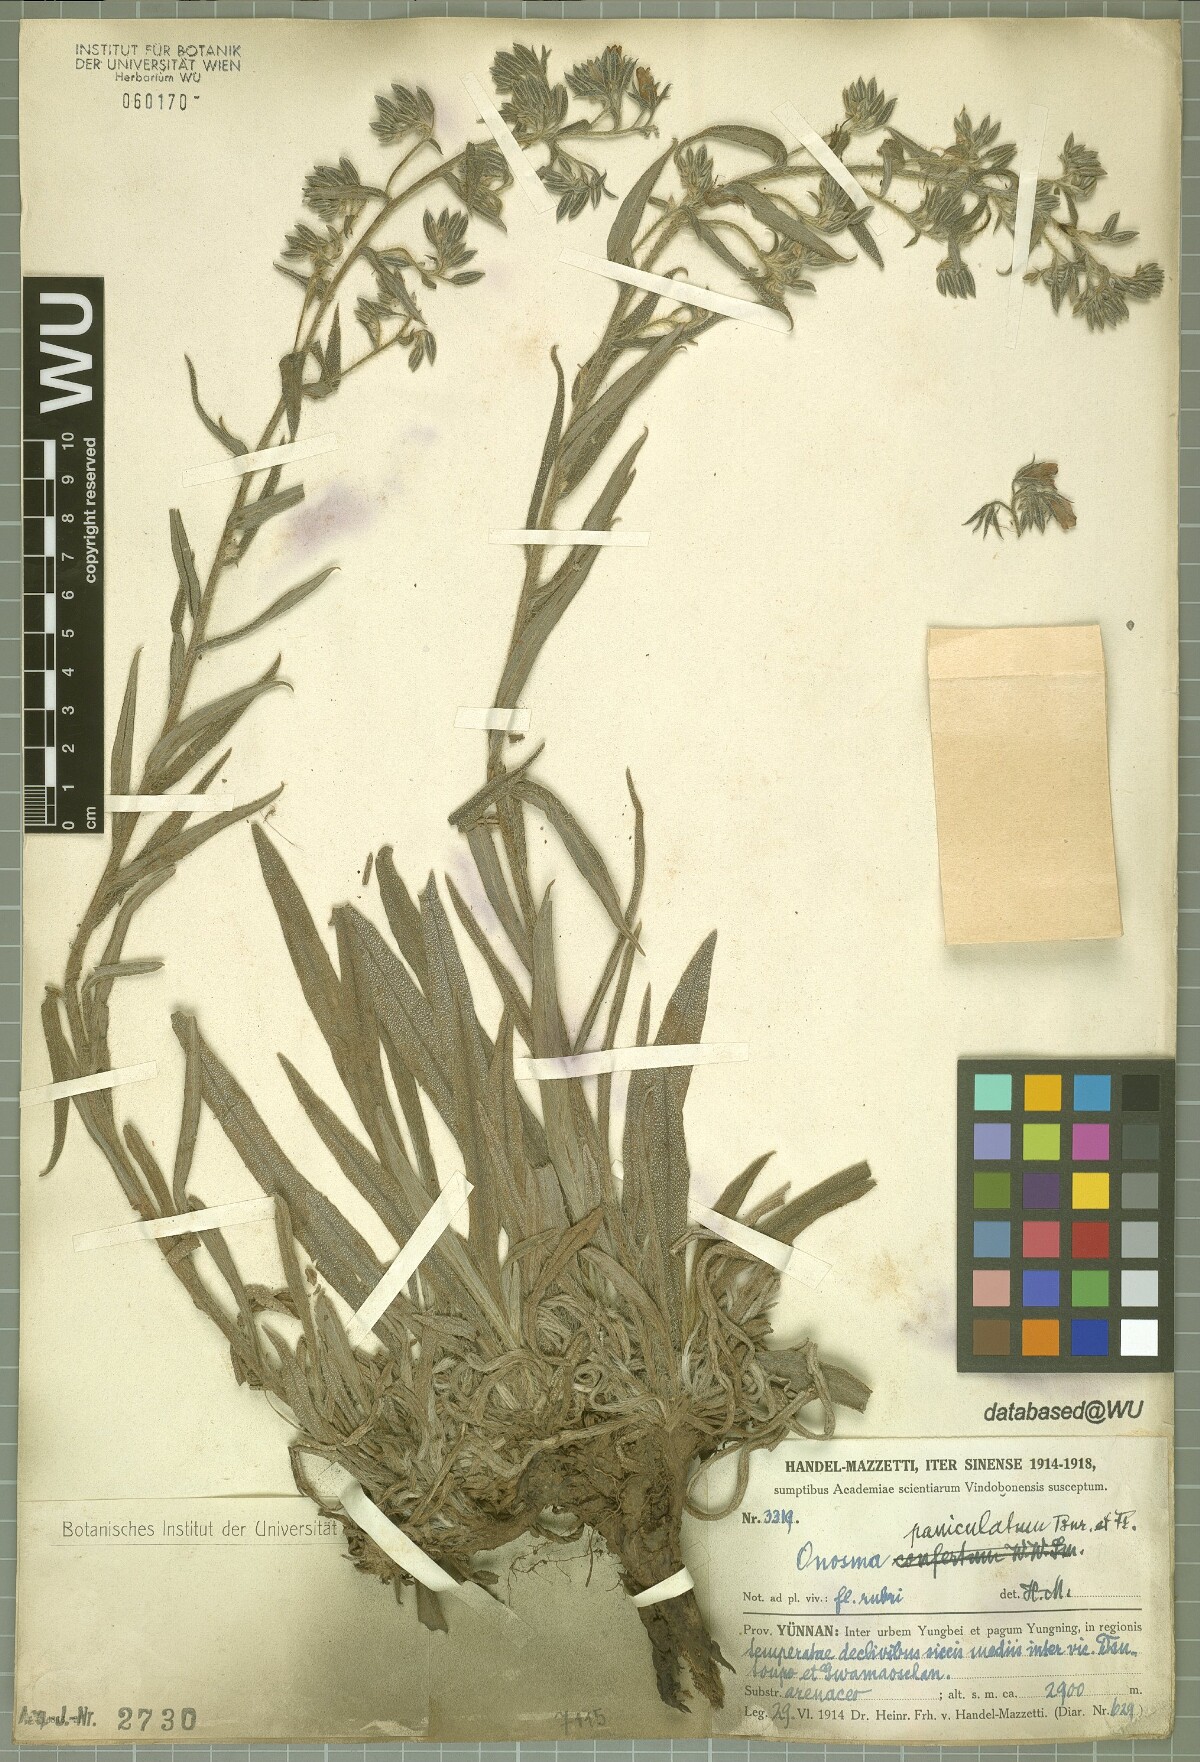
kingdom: Plantae
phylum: Tracheophyta
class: Magnoliopsida
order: Boraginales
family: Boraginaceae
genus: Maharanga
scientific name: Maharanga paniculata
